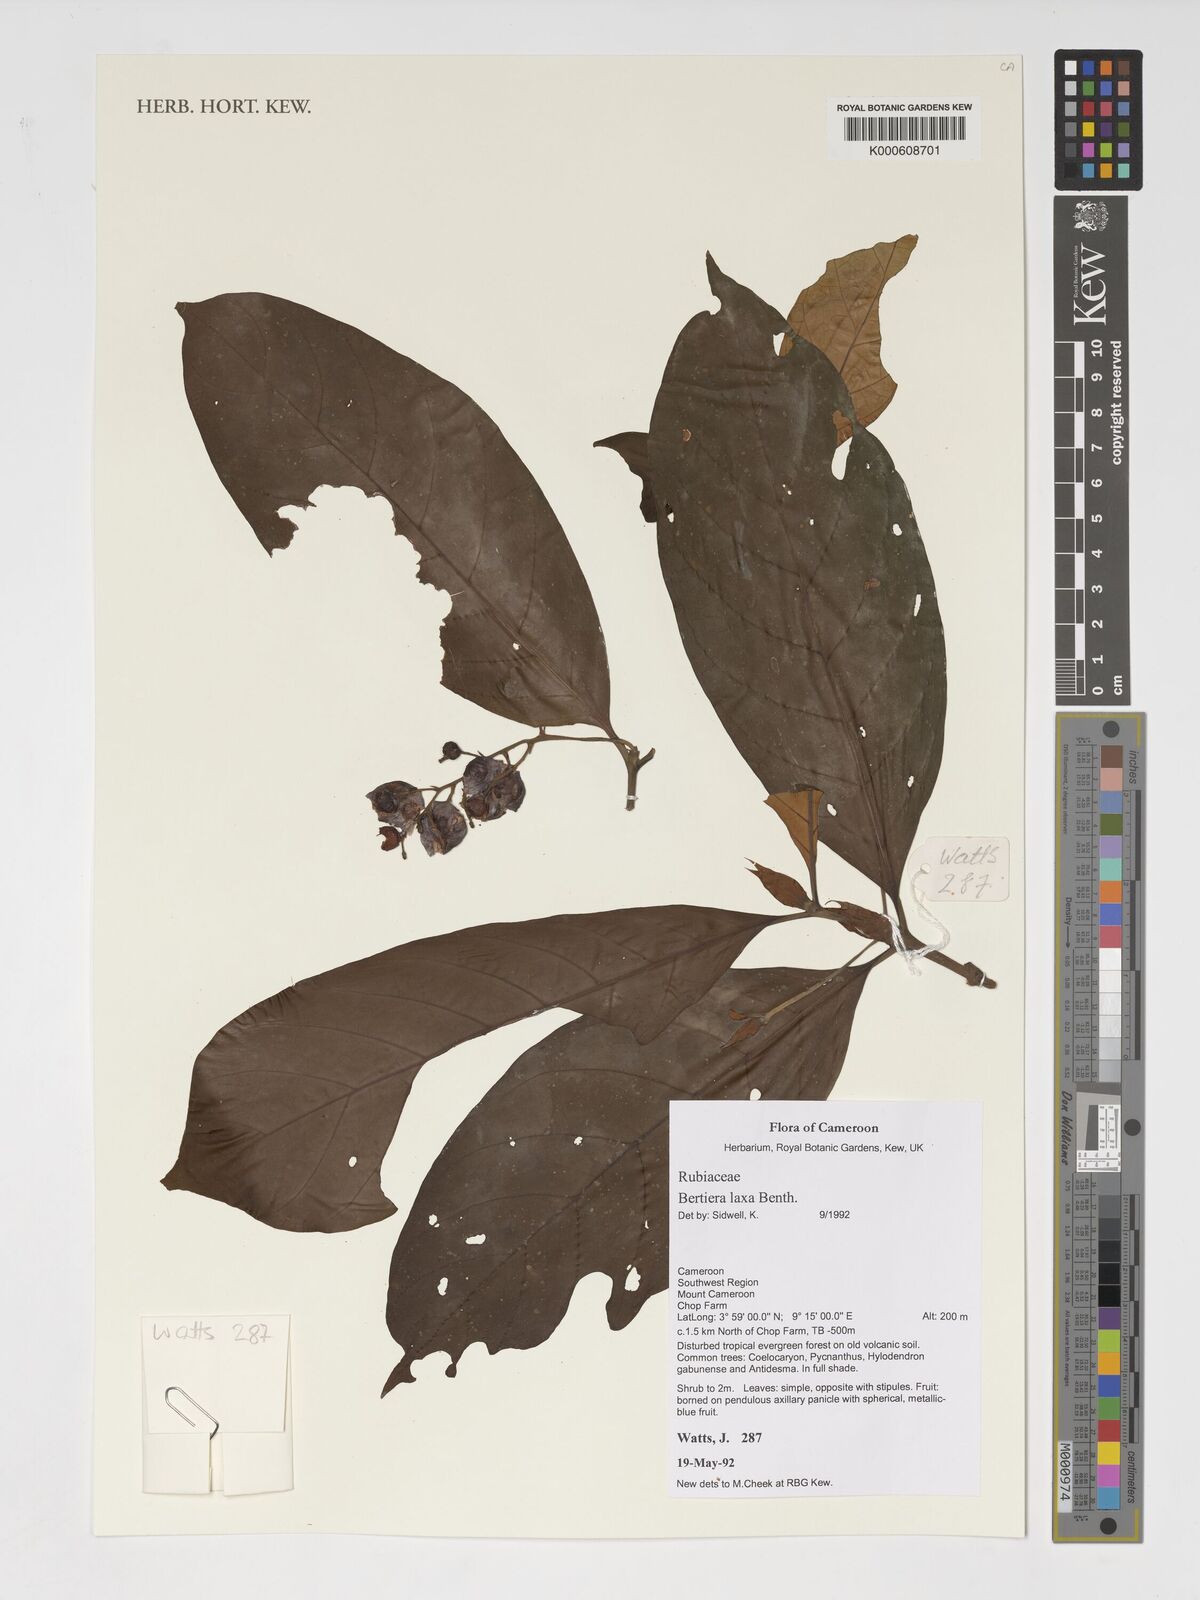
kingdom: Plantae
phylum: Tracheophyta
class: Magnoliopsida
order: Gentianales
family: Rubiaceae
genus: Bertiera
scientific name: Bertiera laxa
